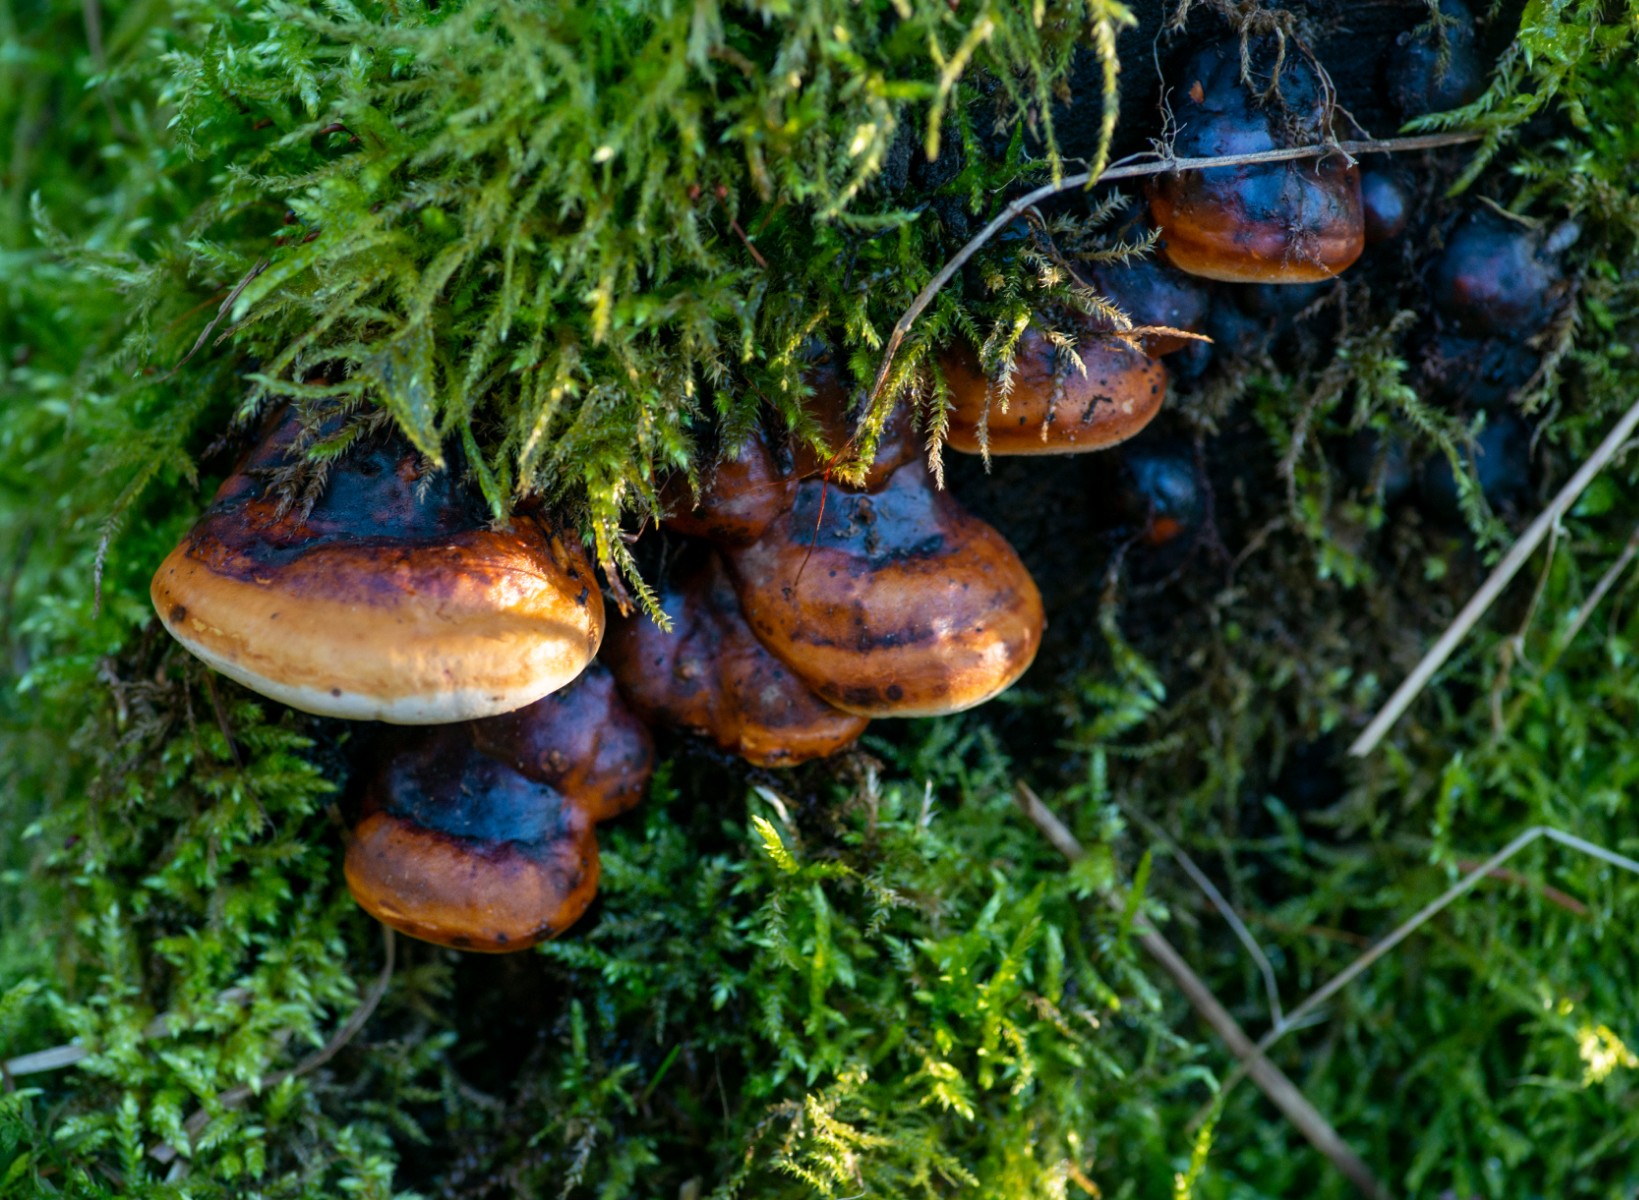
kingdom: Fungi
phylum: Basidiomycota
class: Agaricomycetes
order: Polyporales
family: Fomitopsidaceae
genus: Fomitopsis
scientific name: Fomitopsis pinicola
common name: randbæltet hovporesvamp
